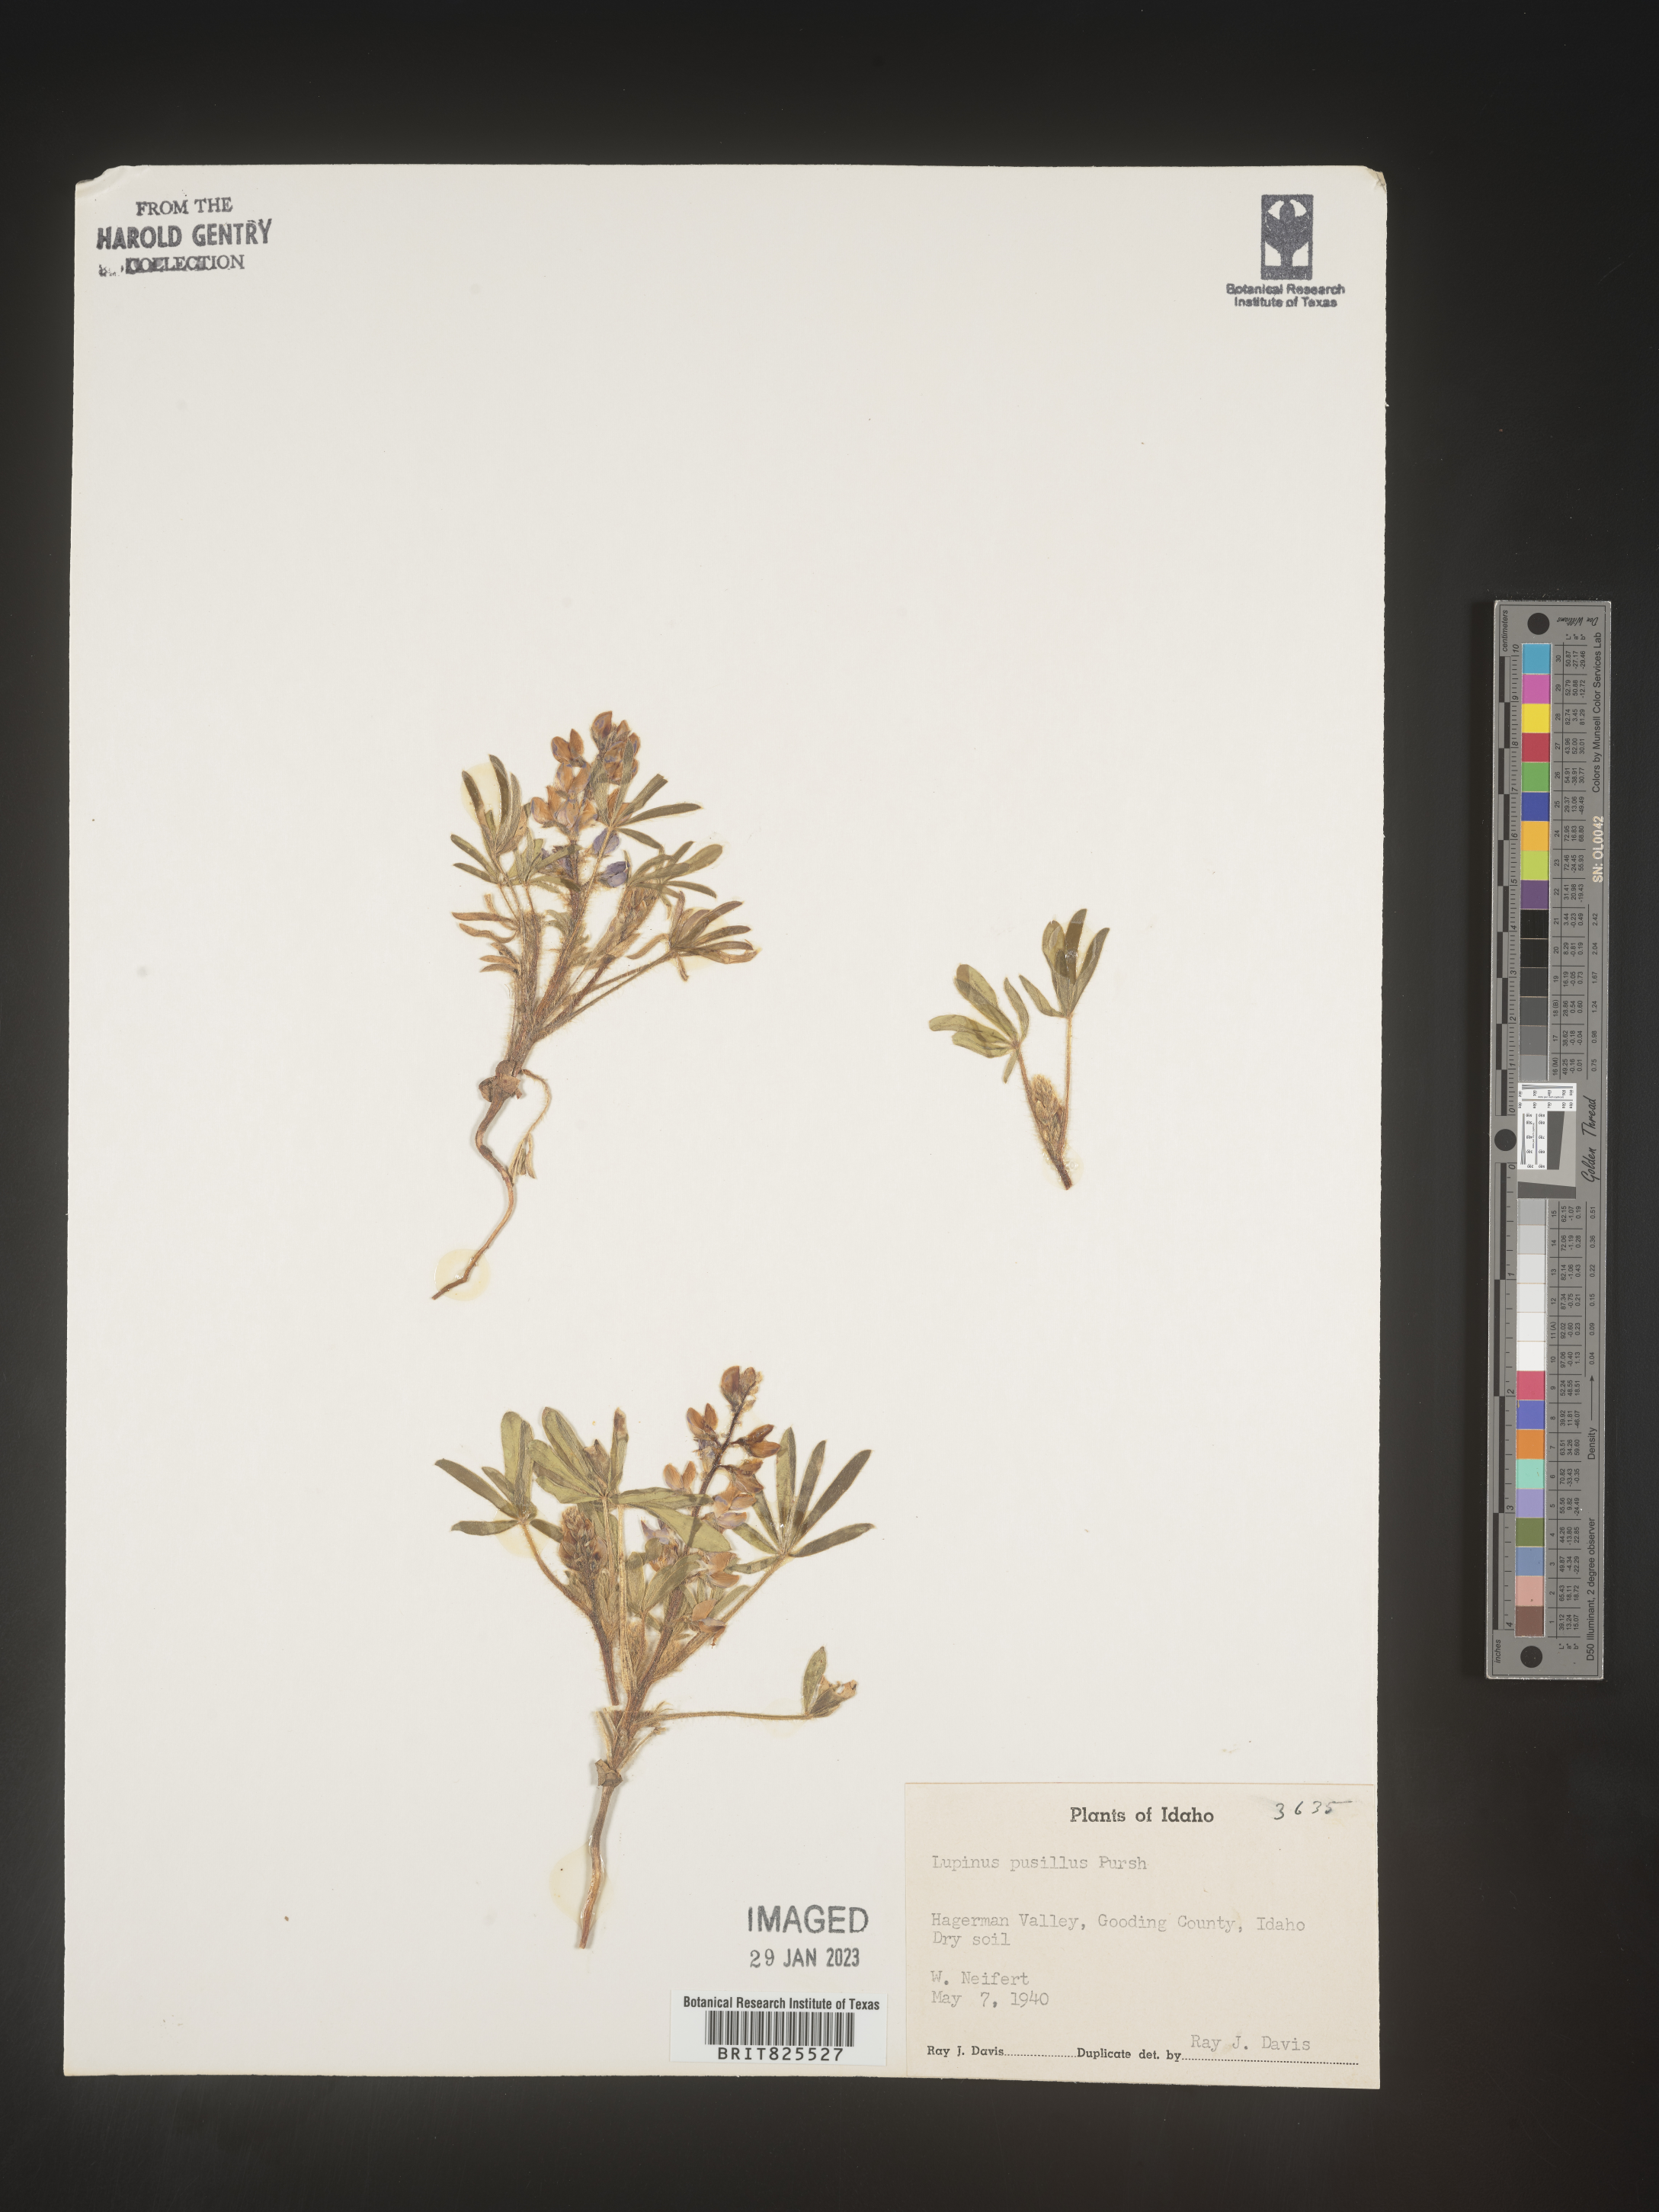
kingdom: Plantae
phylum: Tracheophyta
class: Magnoliopsida
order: Fabales
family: Fabaceae
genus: Lupinus
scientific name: Lupinus
